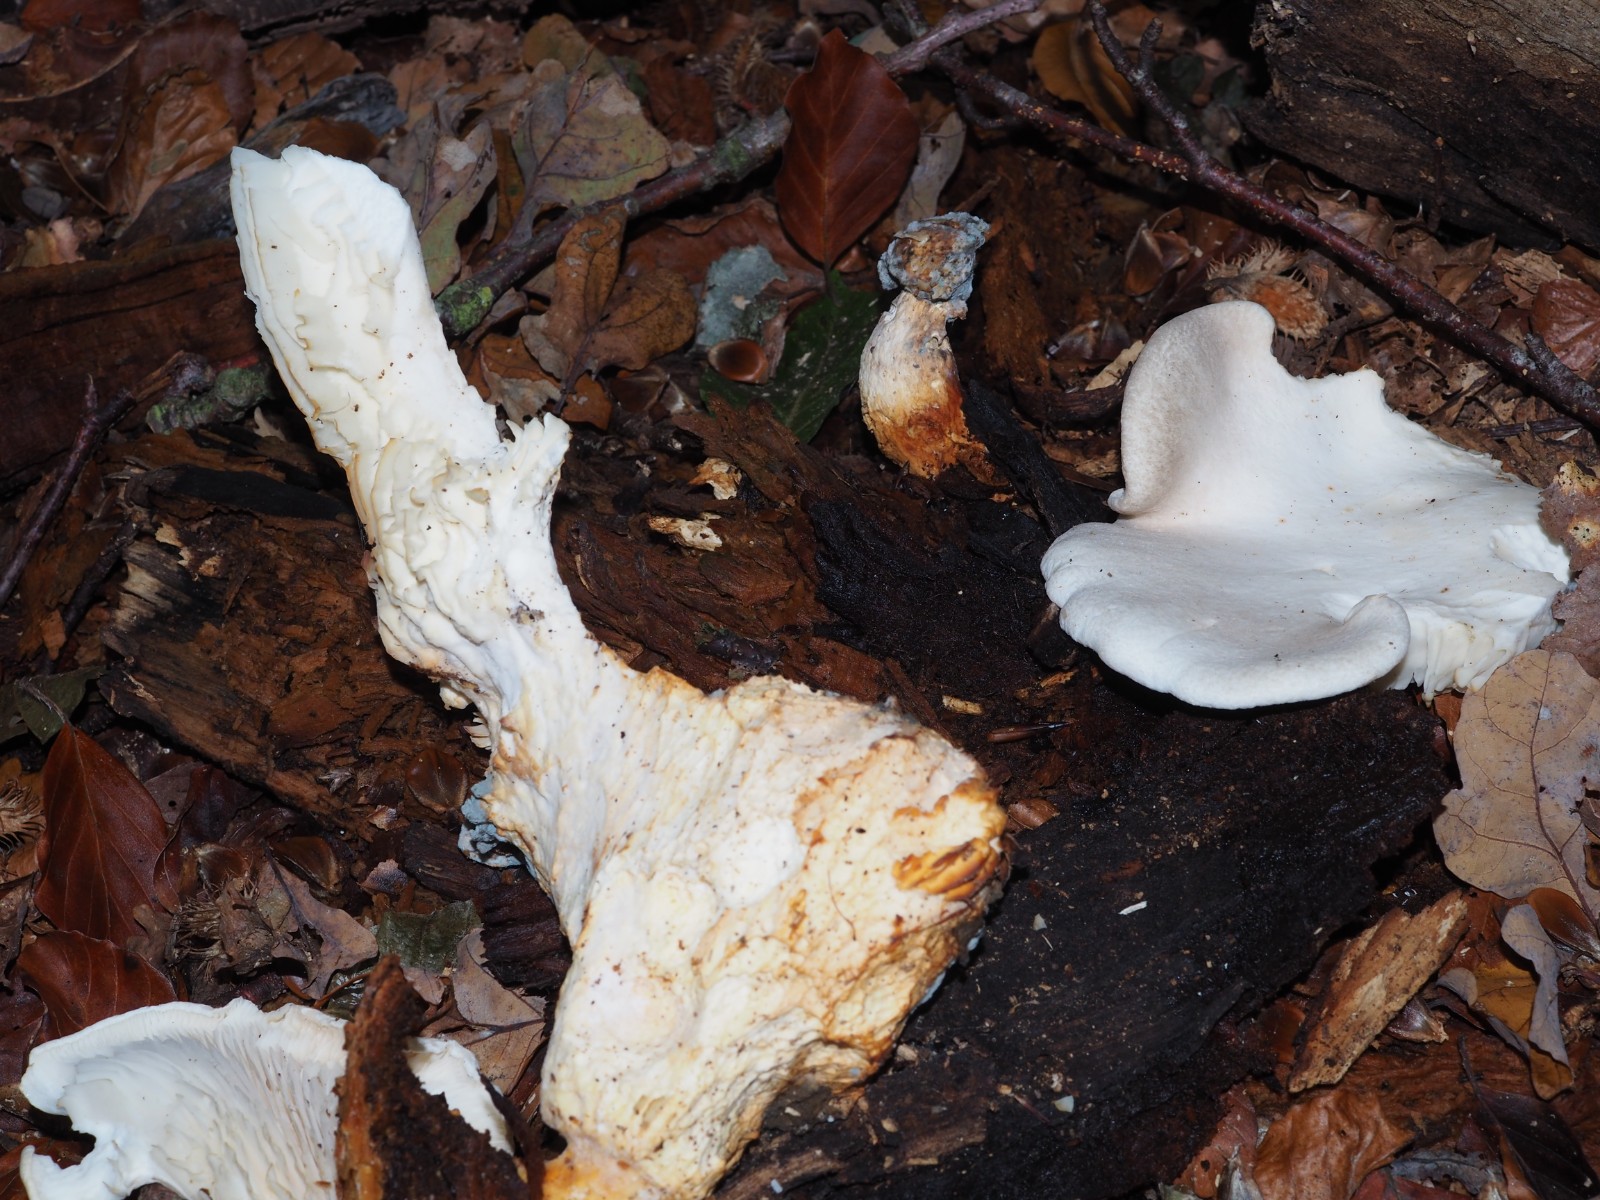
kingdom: Fungi
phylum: Basidiomycota
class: Agaricomycetes
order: Agaricales
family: Pleurotaceae
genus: Pleurotus
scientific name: Pleurotus dryinus
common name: korkagtig østershat
